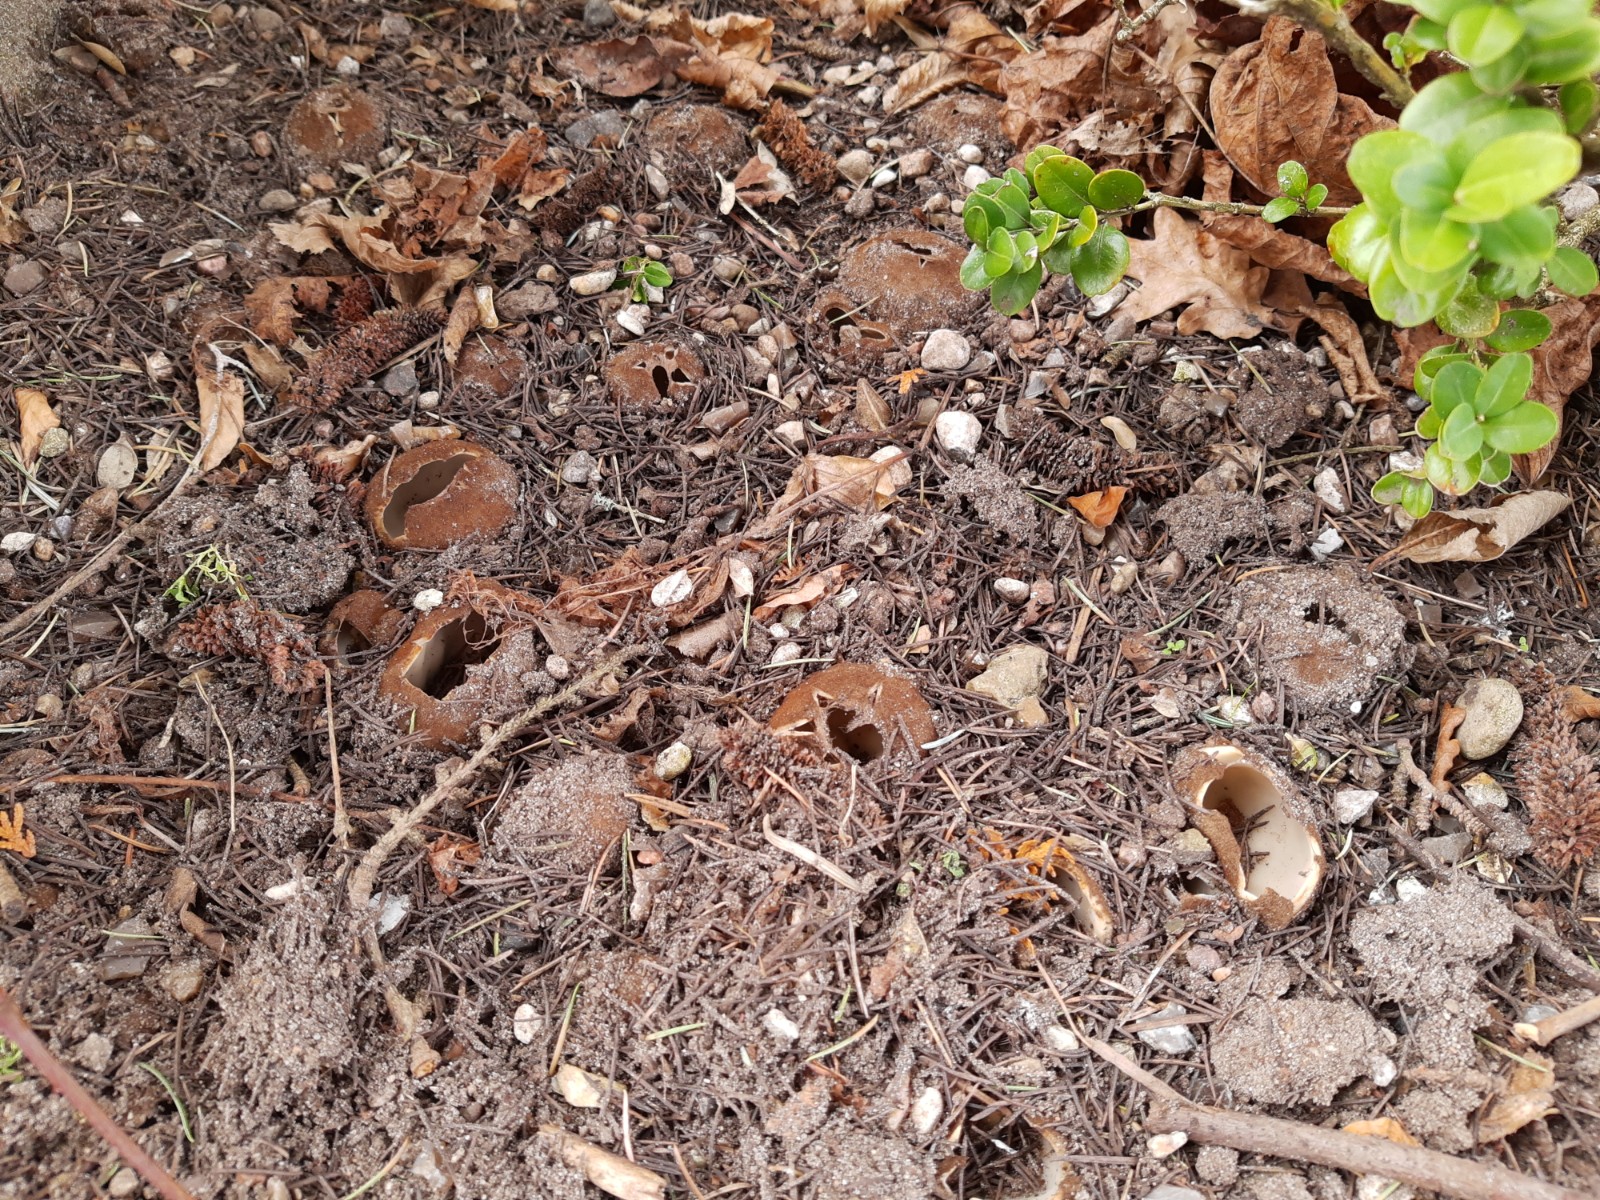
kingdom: Fungi
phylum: Ascomycota
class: Pezizomycetes
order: Pezizales
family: Pyronemataceae
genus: Geopora
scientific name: Geopora sumneriana
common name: vår-jordbæger
